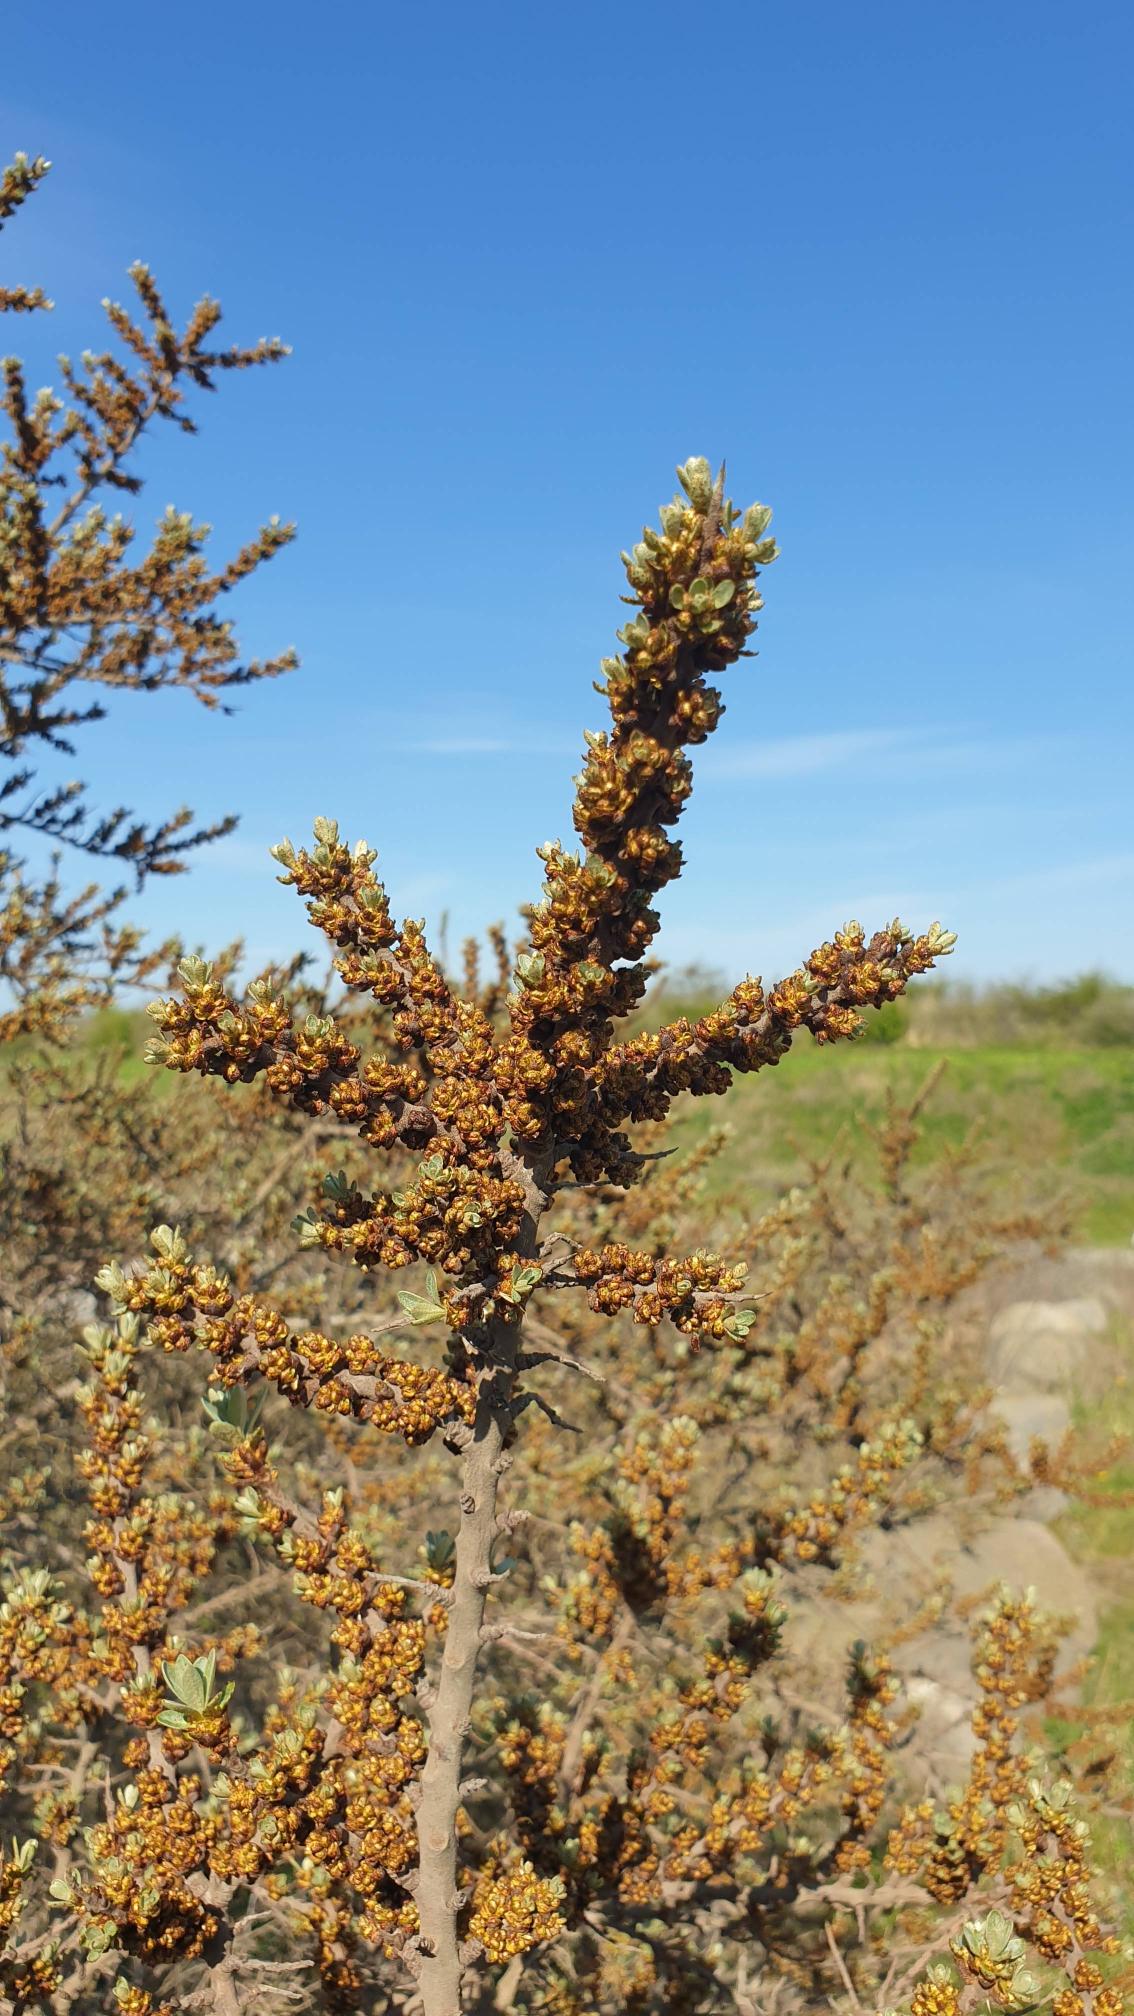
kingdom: Plantae
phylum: Tracheophyta
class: Magnoliopsida
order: Rosales
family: Elaeagnaceae
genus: Hippophae
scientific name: Hippophae rhamnoides
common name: Havtorn
